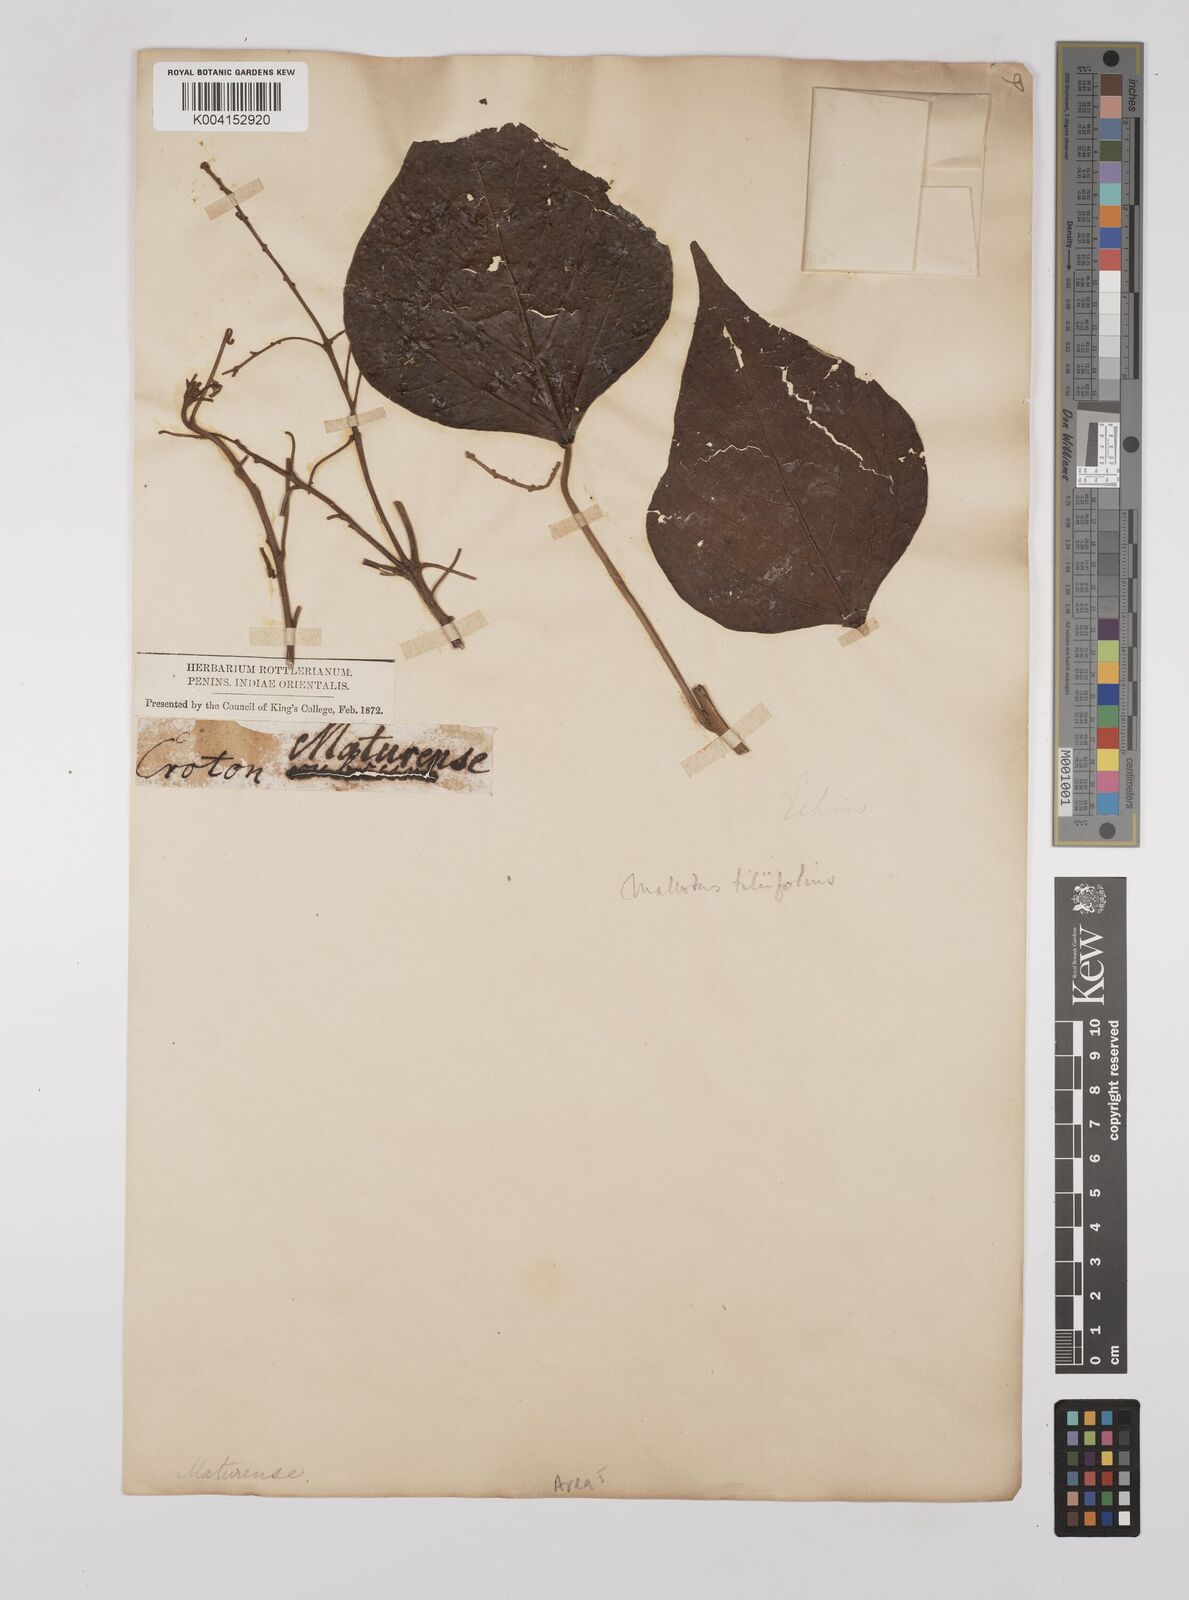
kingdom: Plantae
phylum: Tracheophyta
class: Magnoliopsida
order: Malpighiales
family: Euphorbiaceae
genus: Mallotus
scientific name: Mallotus tiliifolius
